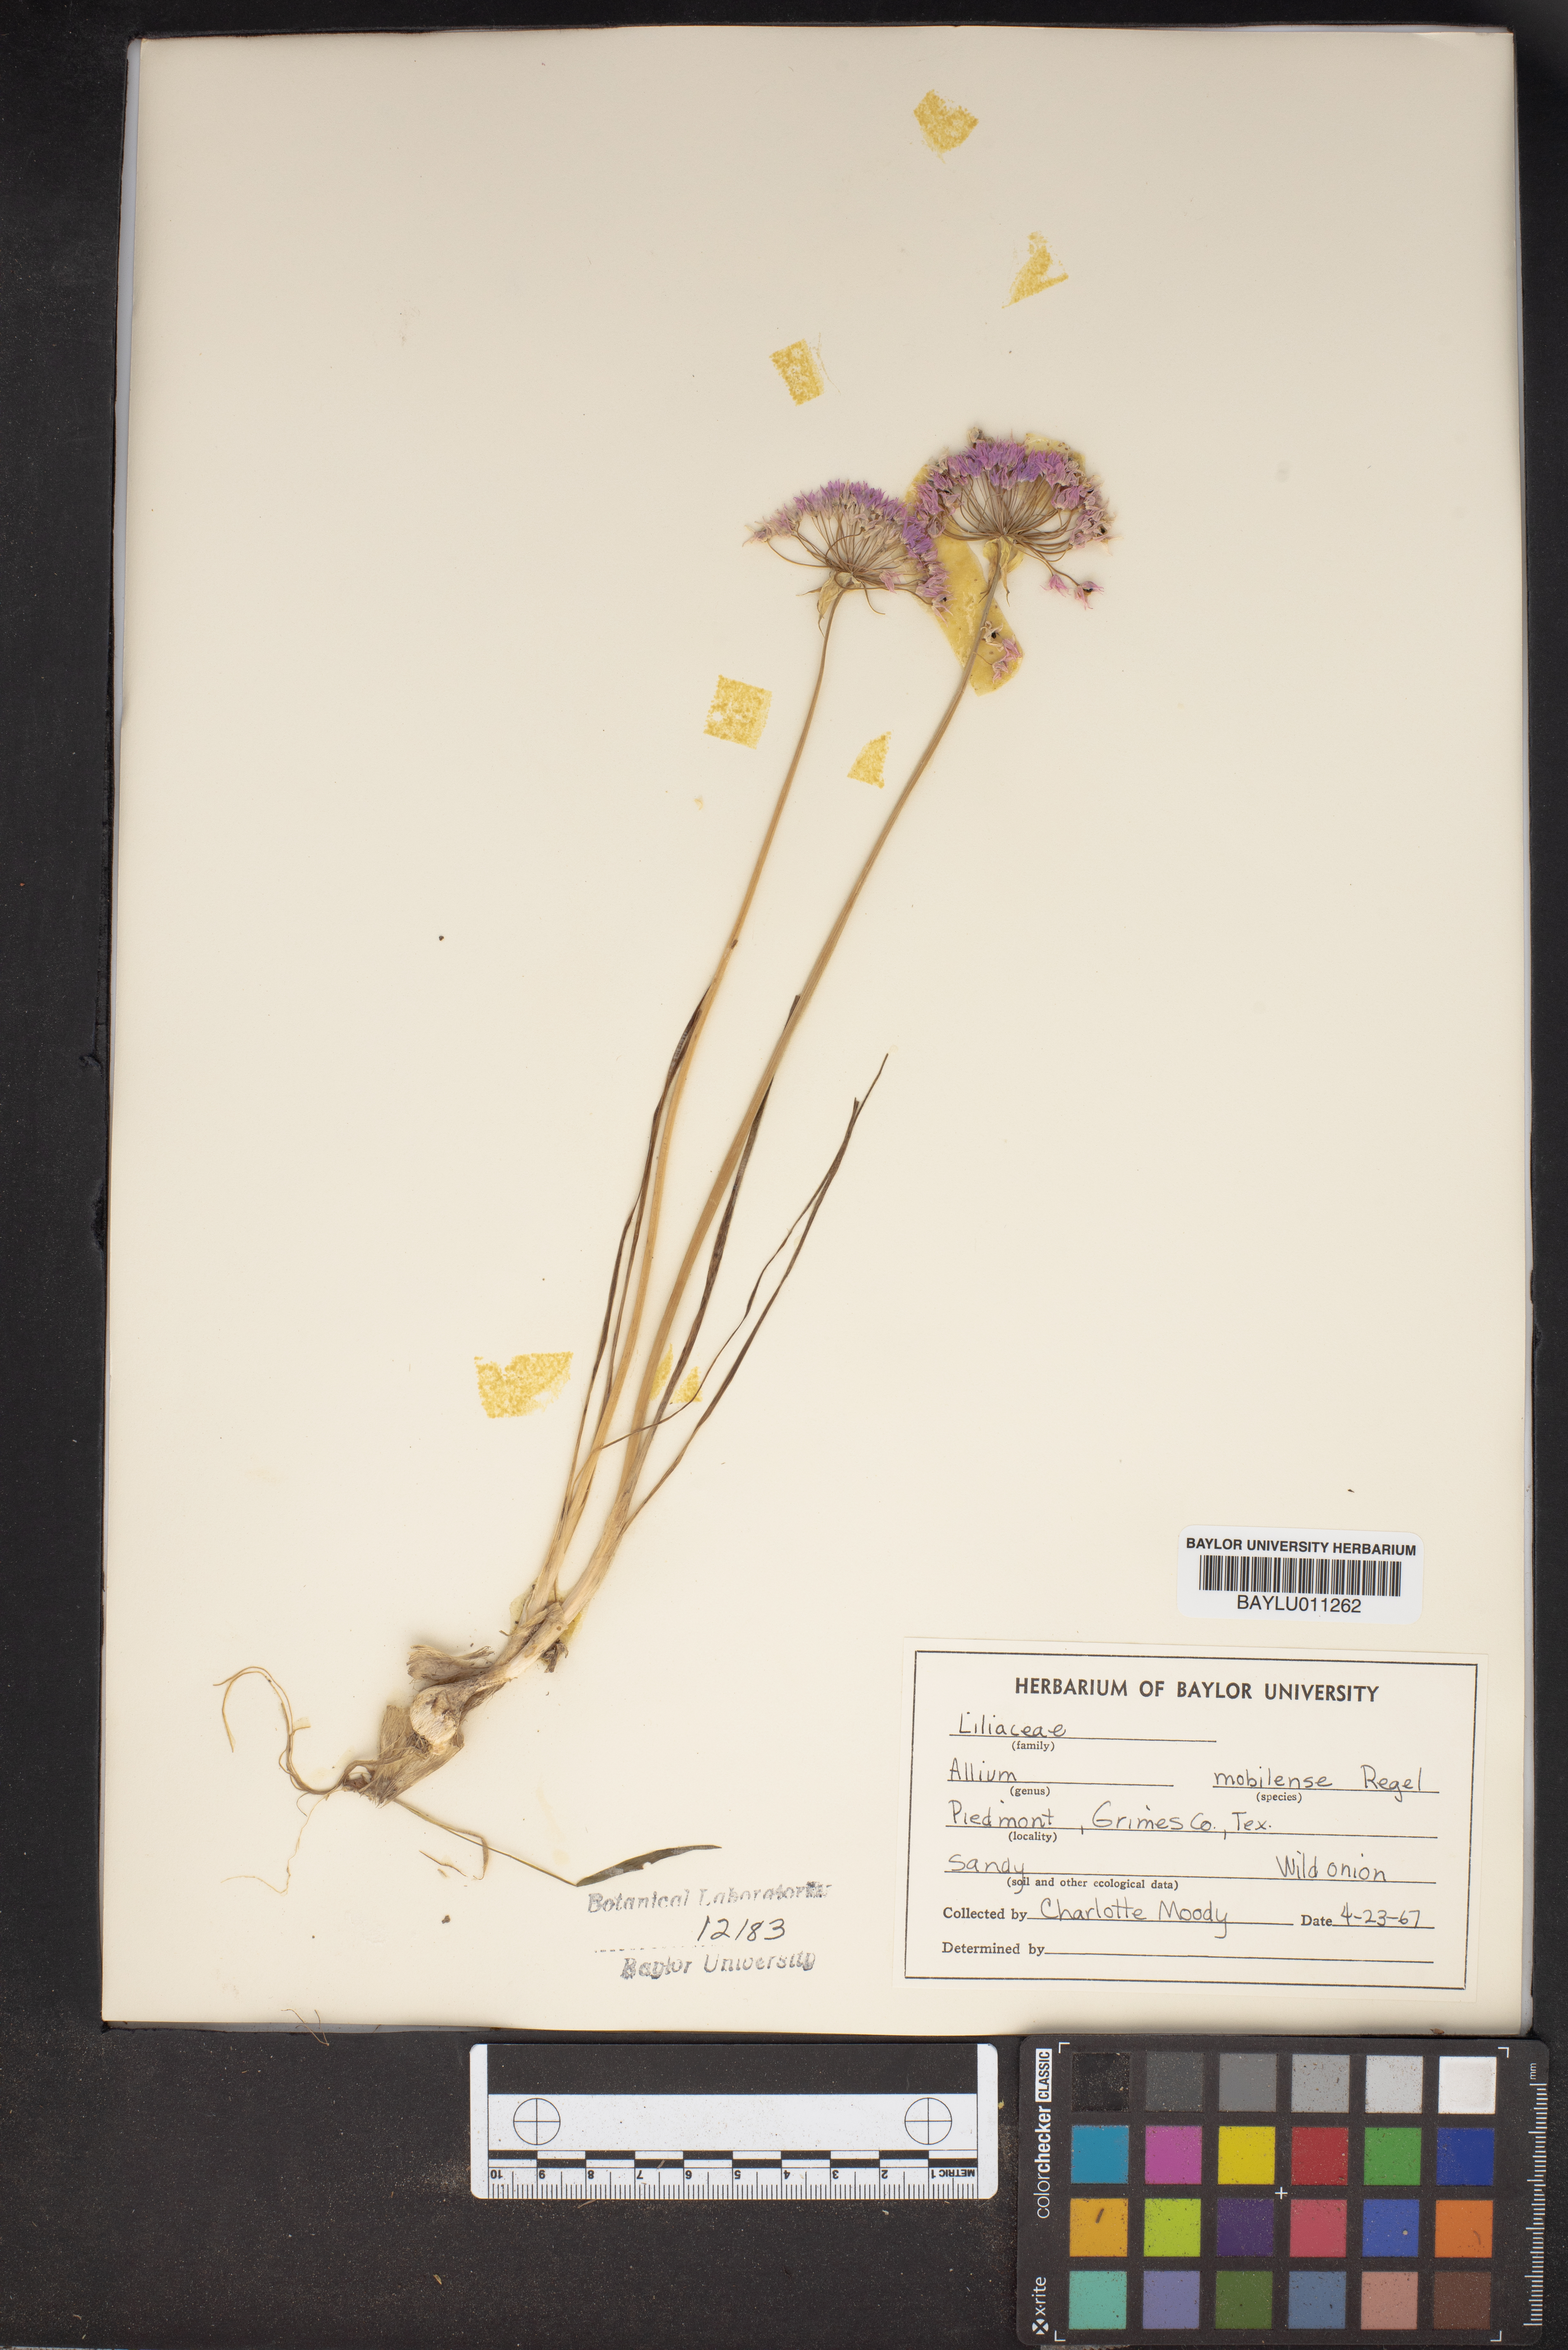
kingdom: Plantae
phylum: Tracheophyta
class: Liliopsida
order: Asparagales
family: Amaryllidaceae
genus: Allium
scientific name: Allium canadense
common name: Meadow garlic
